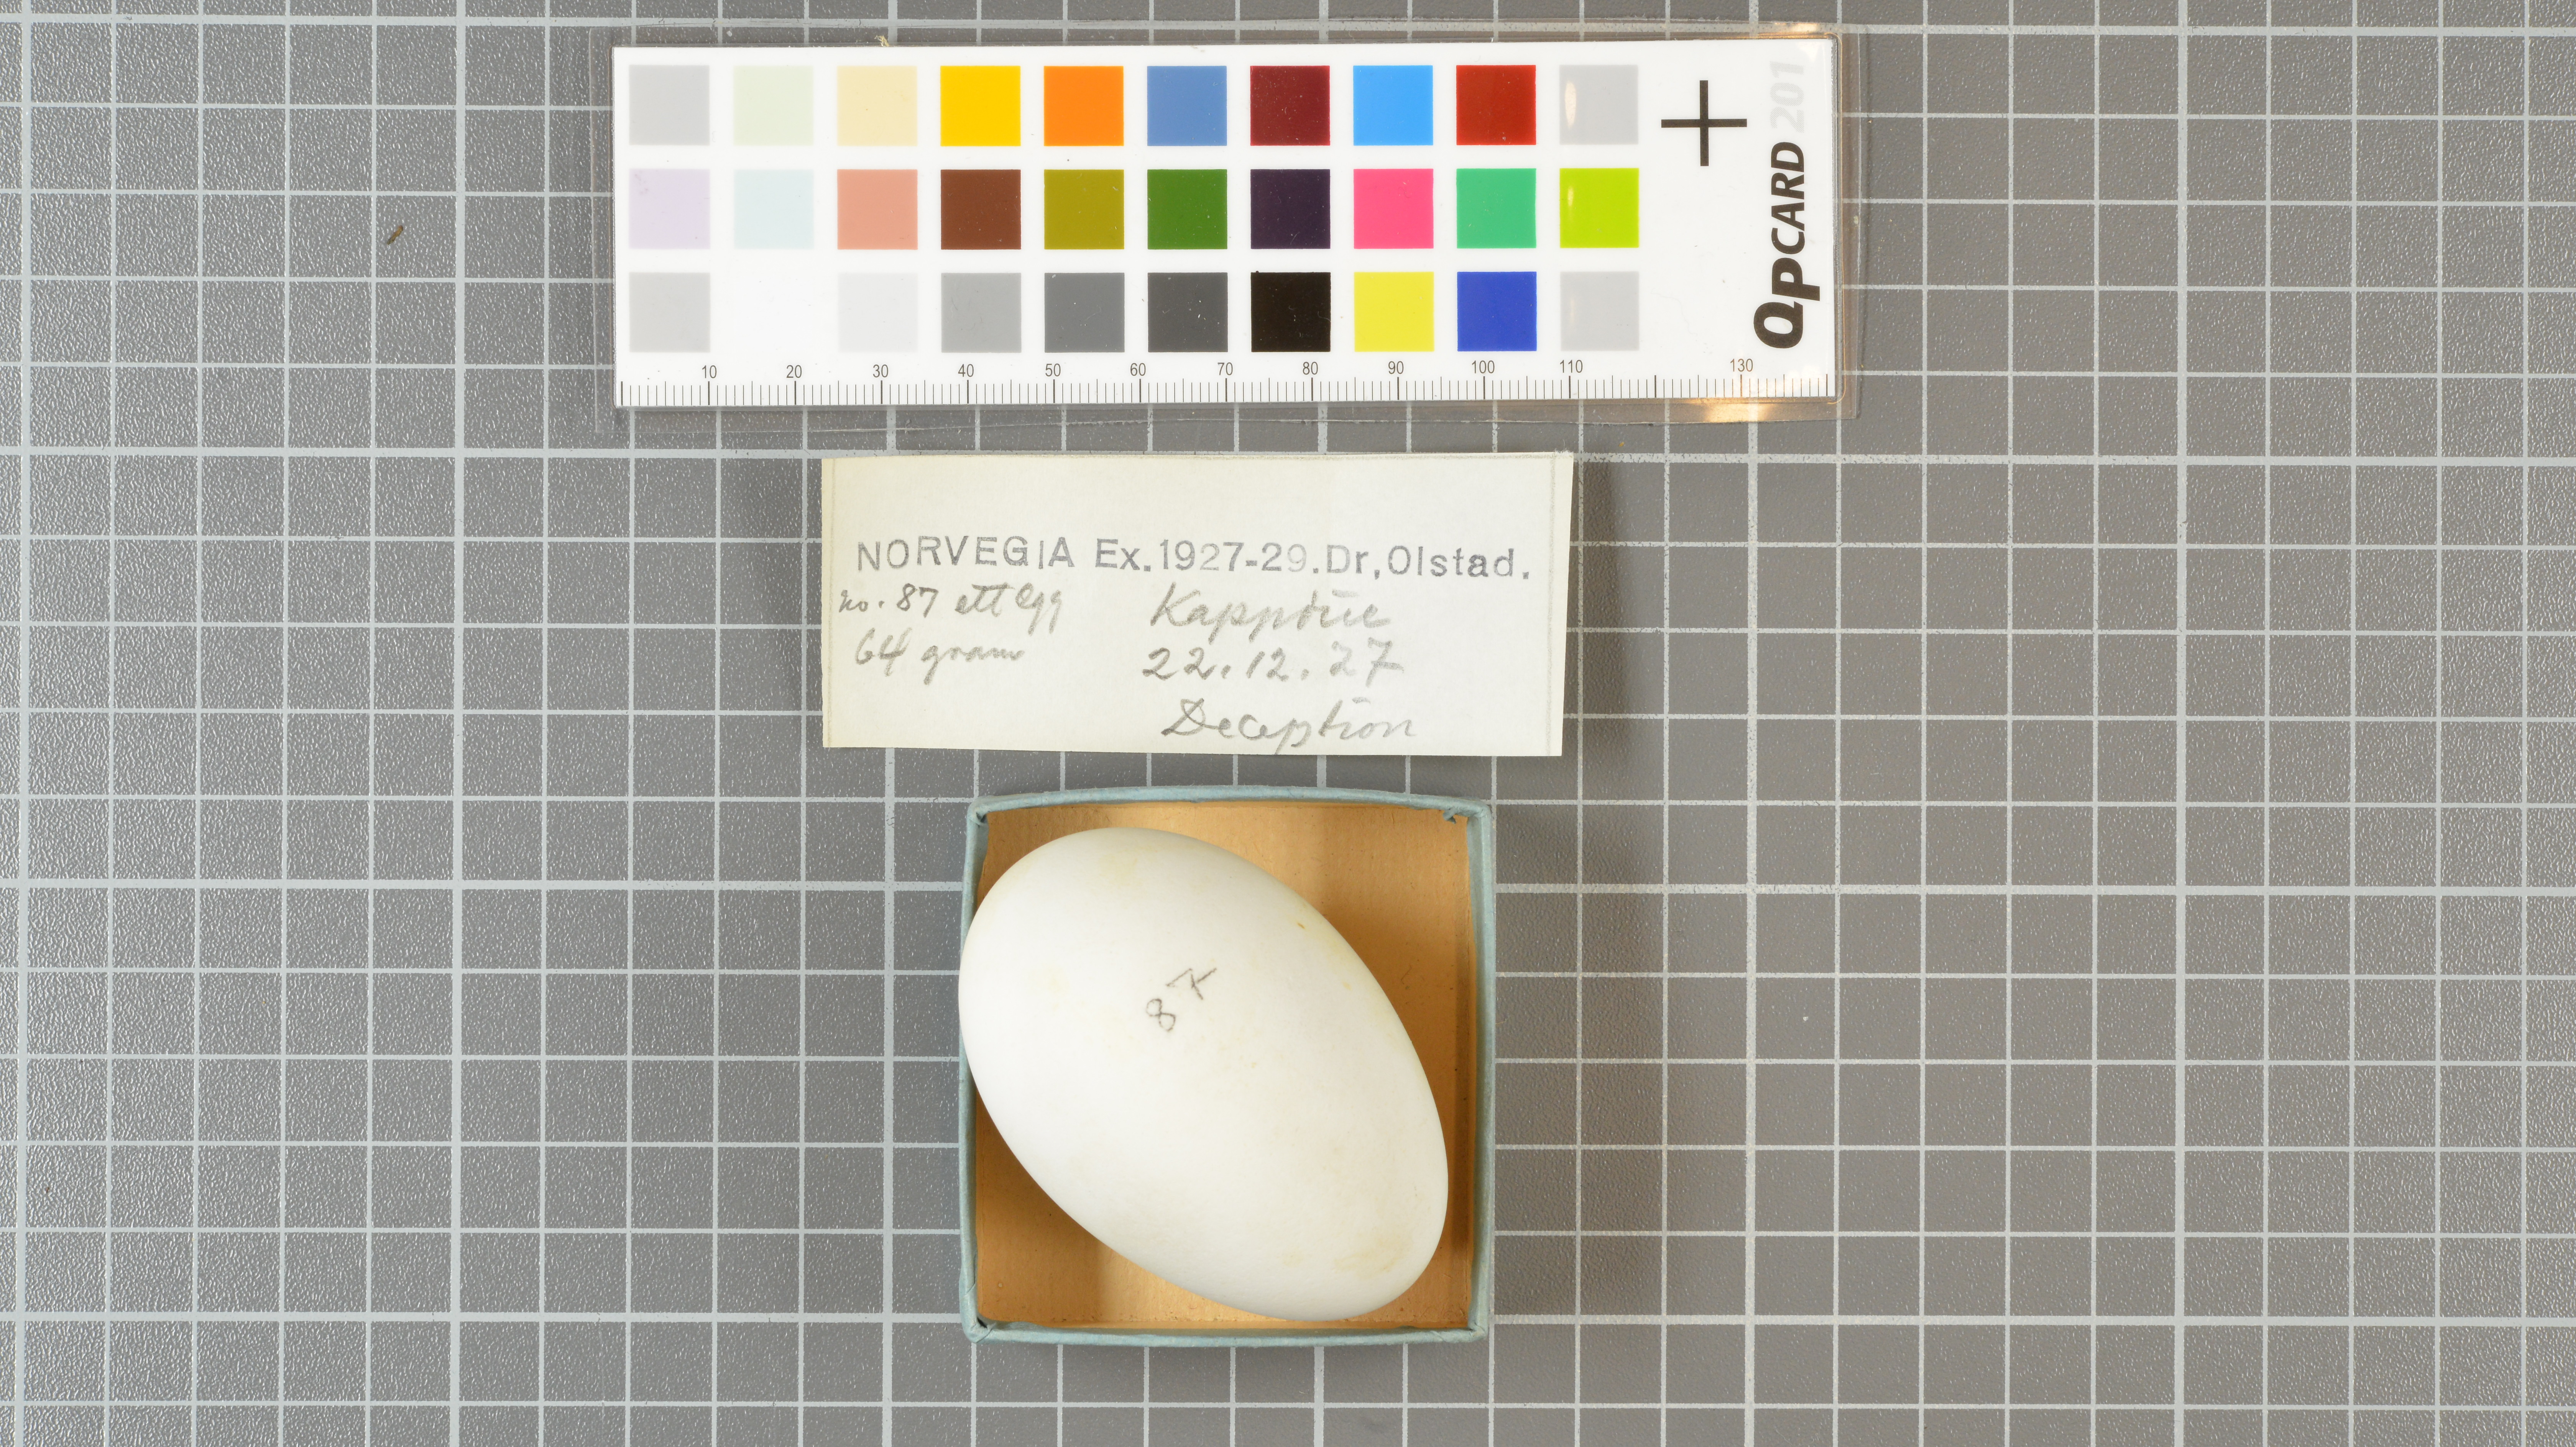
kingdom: Animalia
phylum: Chordata
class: Aves
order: Procellariiformes
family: Procellariidae
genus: Daption
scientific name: Daption capense
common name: Cape petrel
